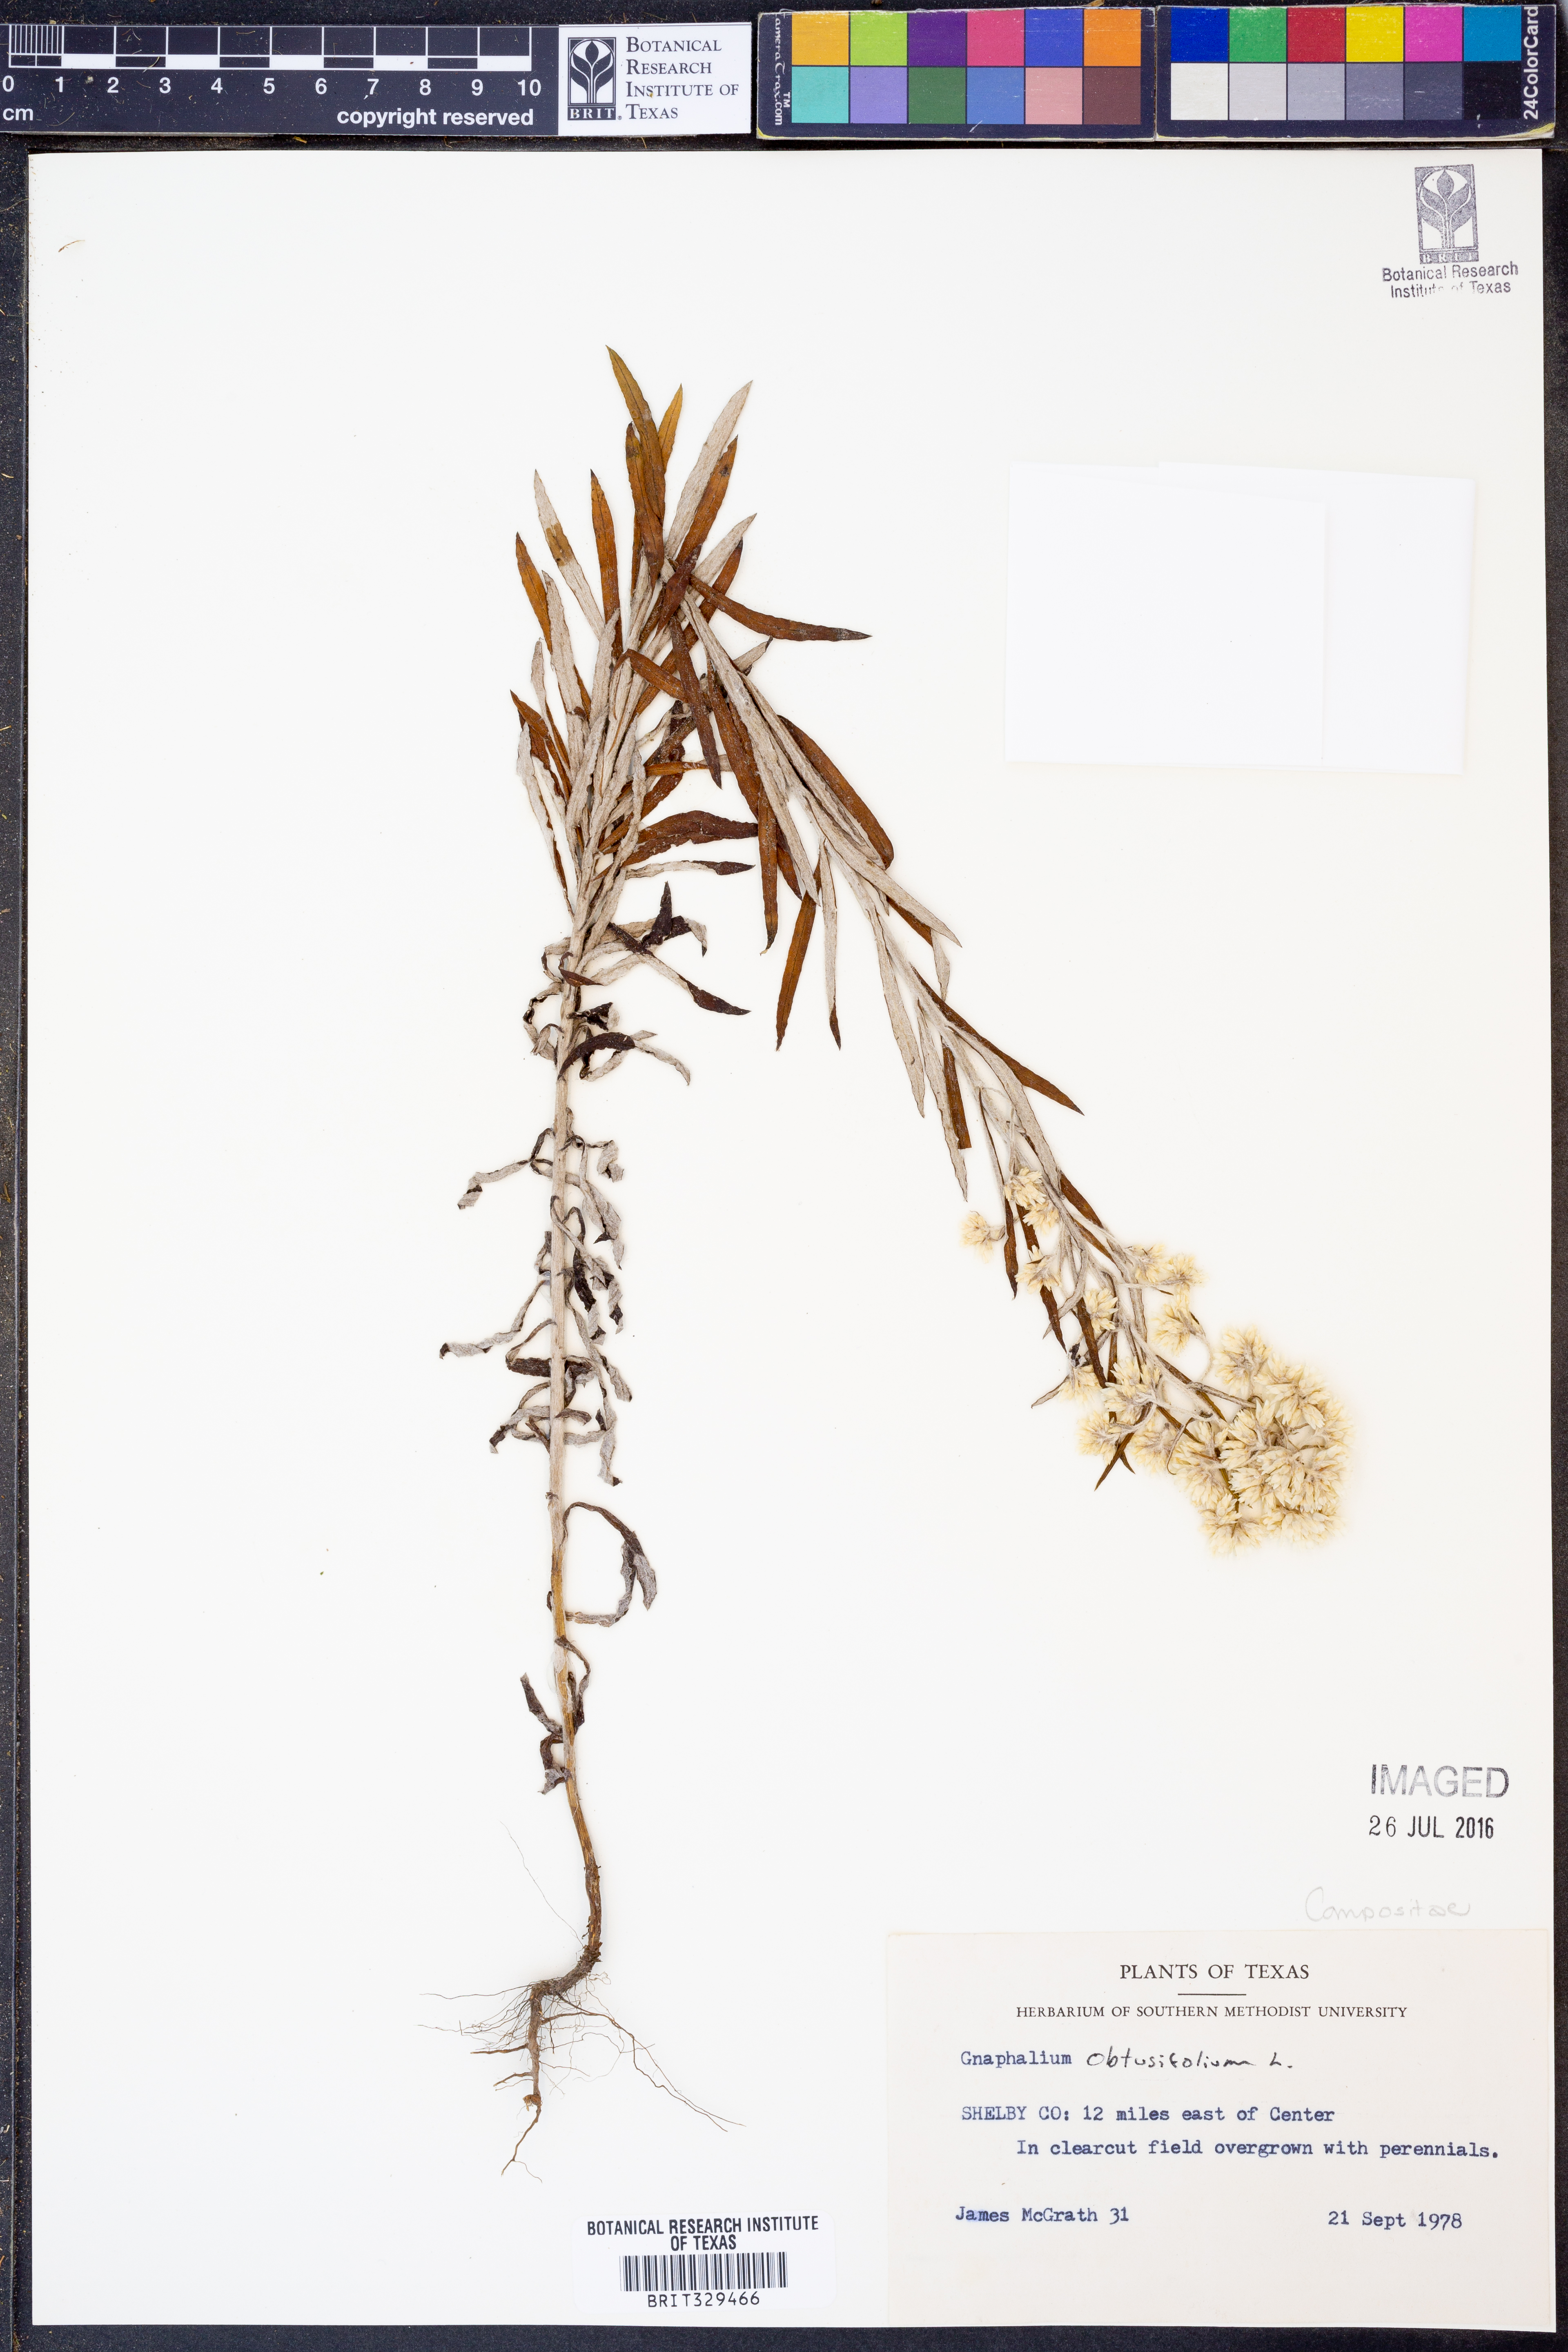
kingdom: Plantae
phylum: Tracheophyta
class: Magnoliopsida
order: Asterales
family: Asteraceae
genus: Pseudognaphalium
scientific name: Pseudognaphalium obtusifolium
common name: Eastern rabbit-tobacco
